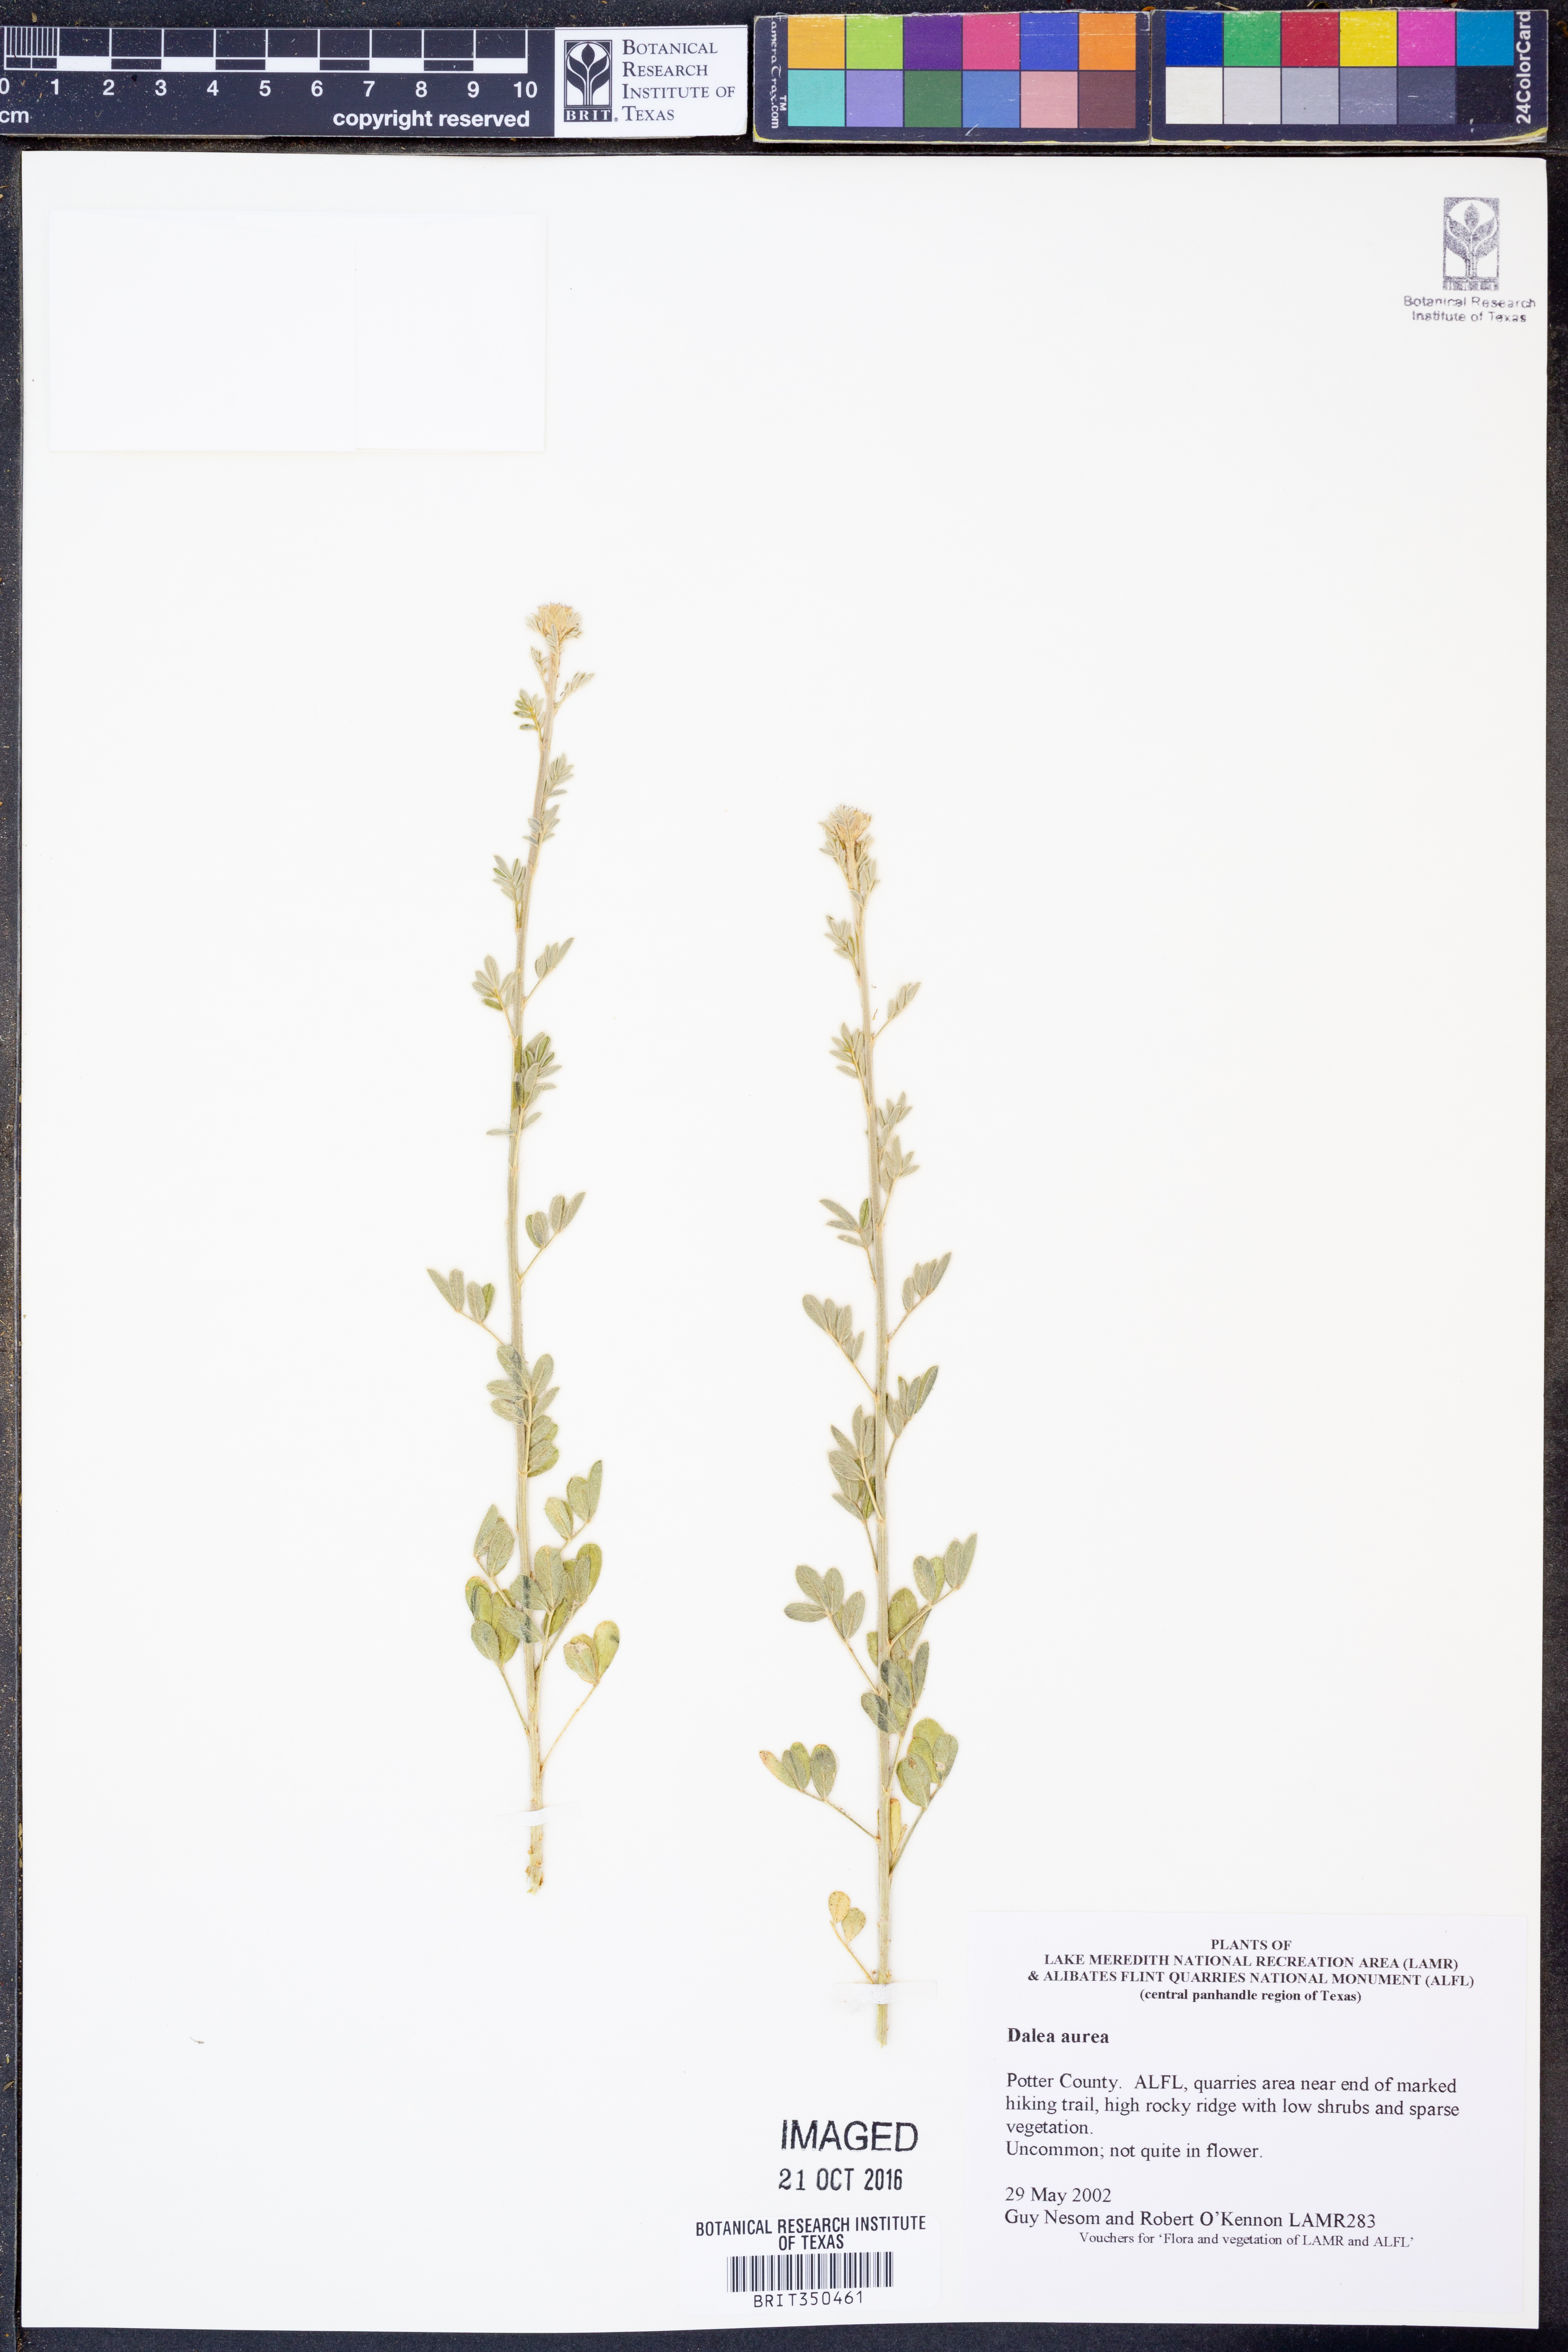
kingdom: Plantae
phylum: Tracheophyta
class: Magnoliopsida
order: Fabales
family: Fabaceae
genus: Dalea
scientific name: Dalea aurea
